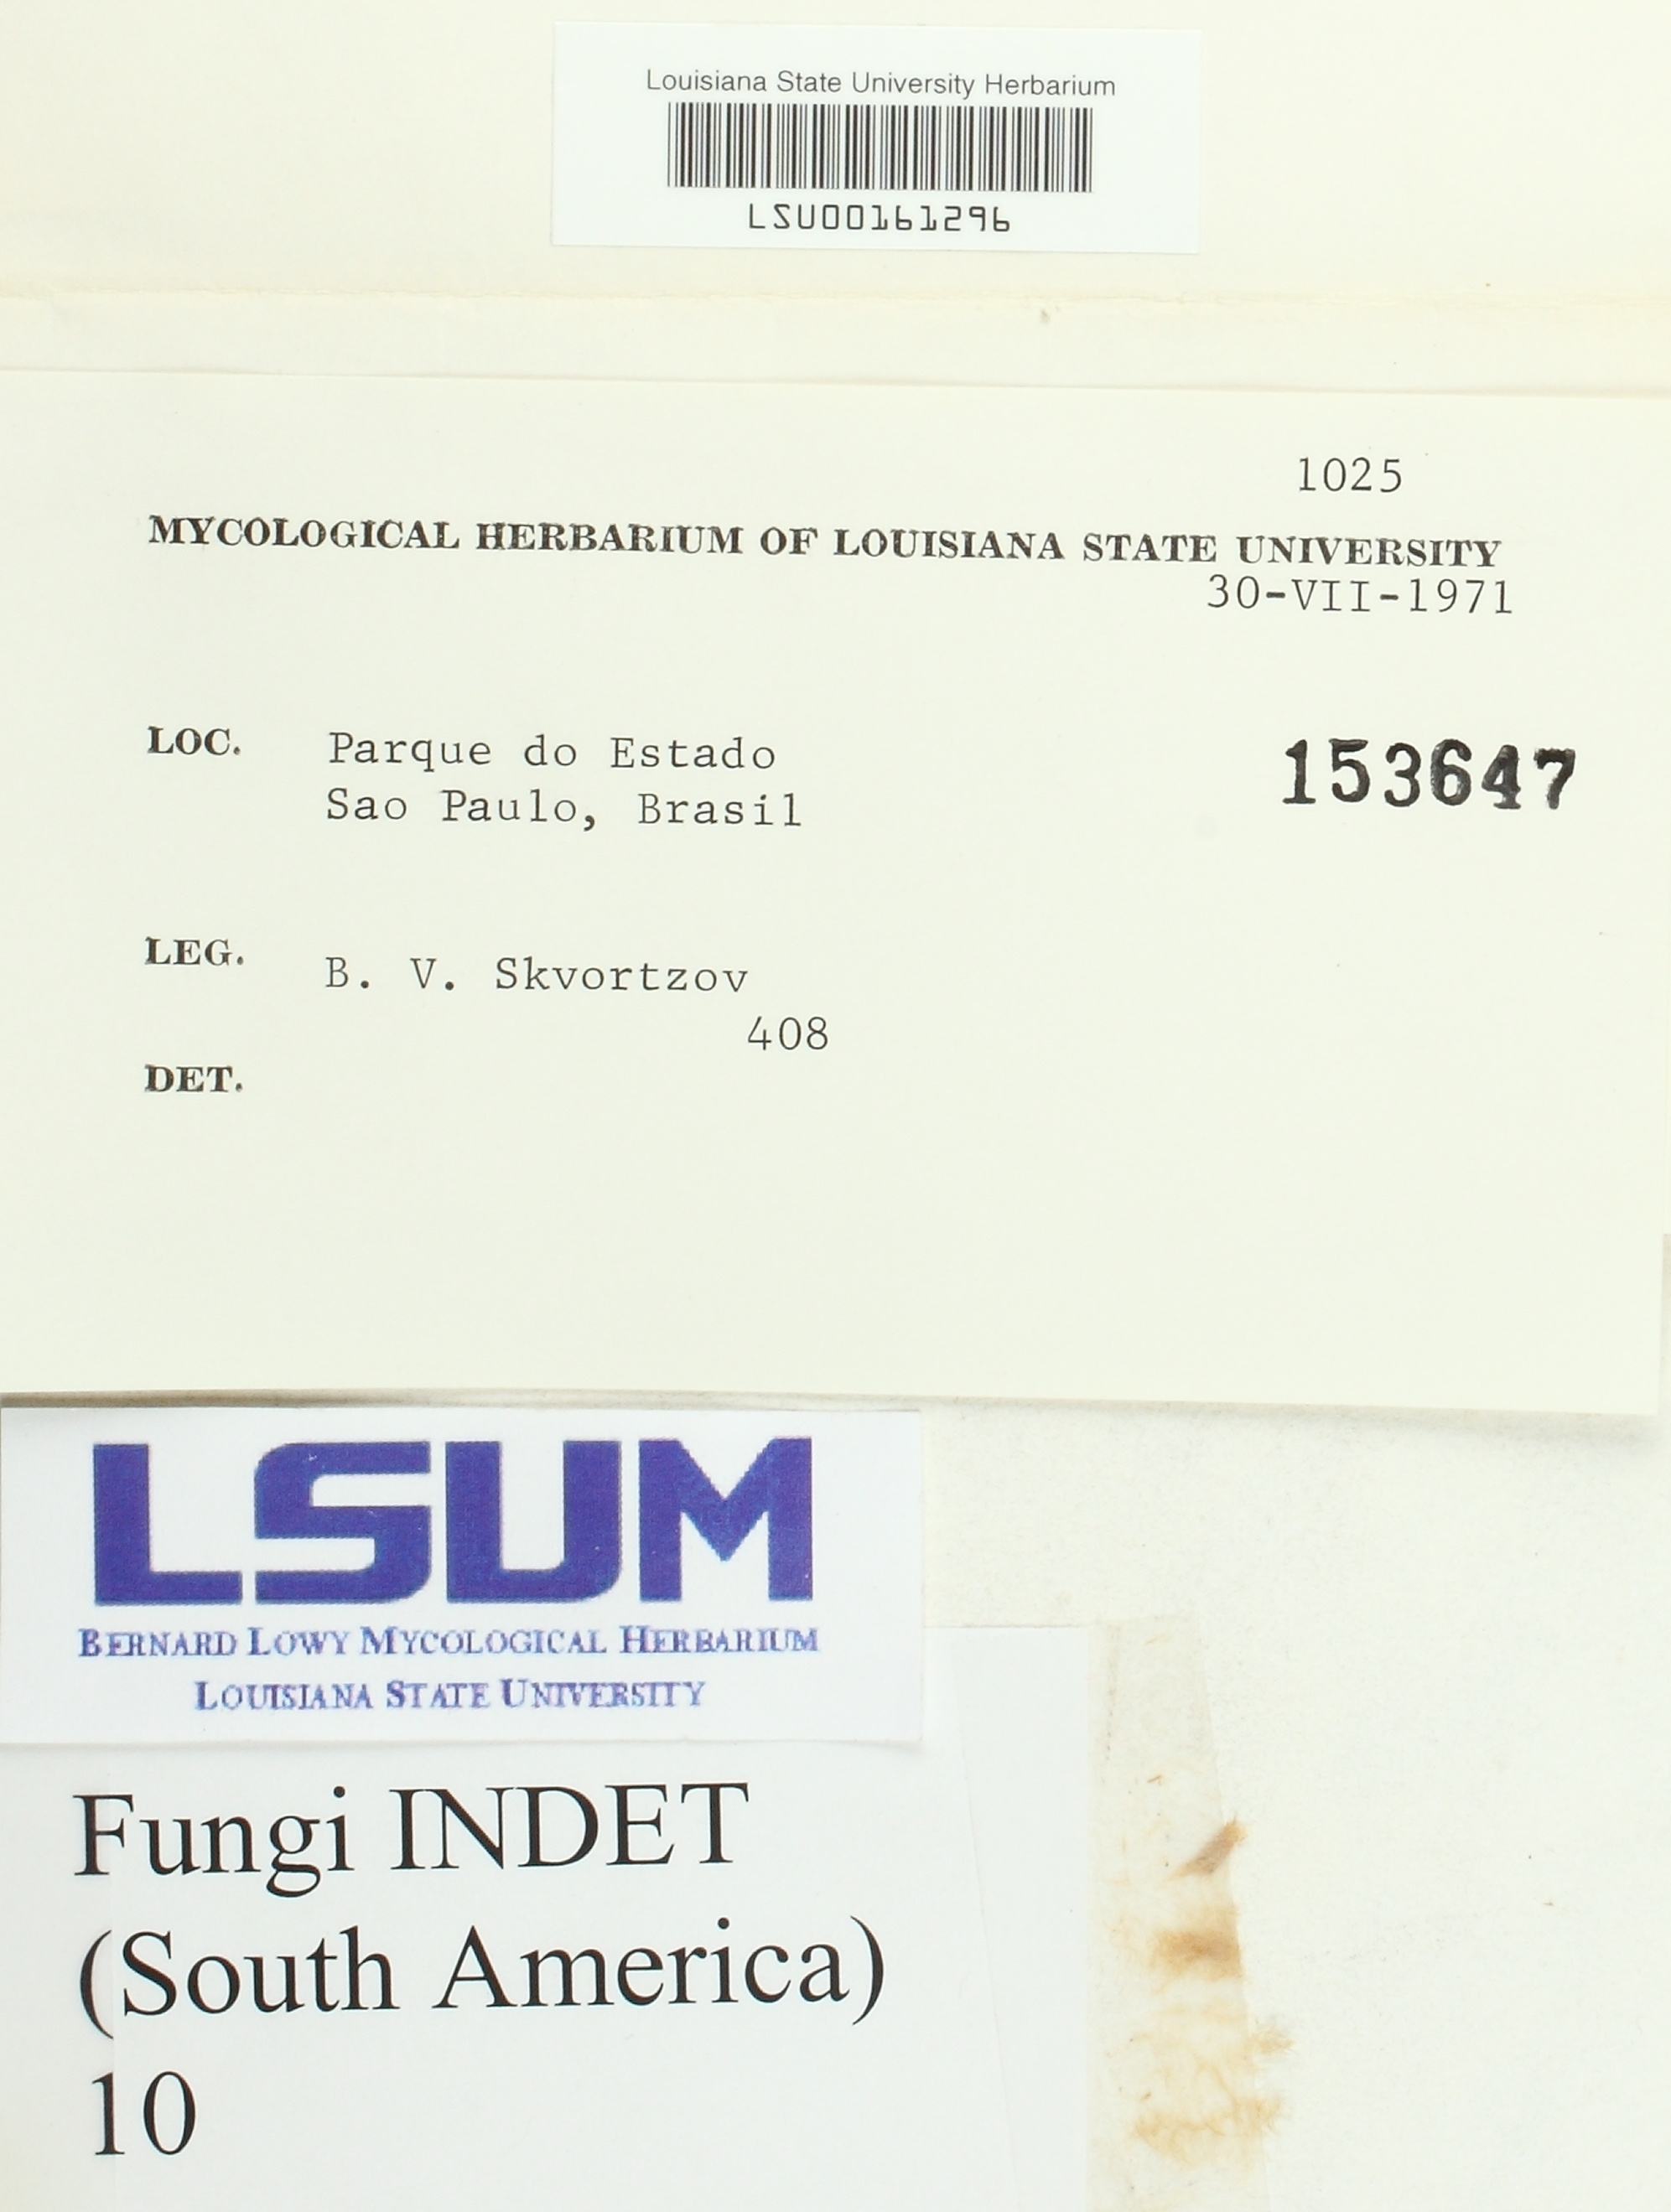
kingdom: Fungi
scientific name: Fungi
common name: Fungi
